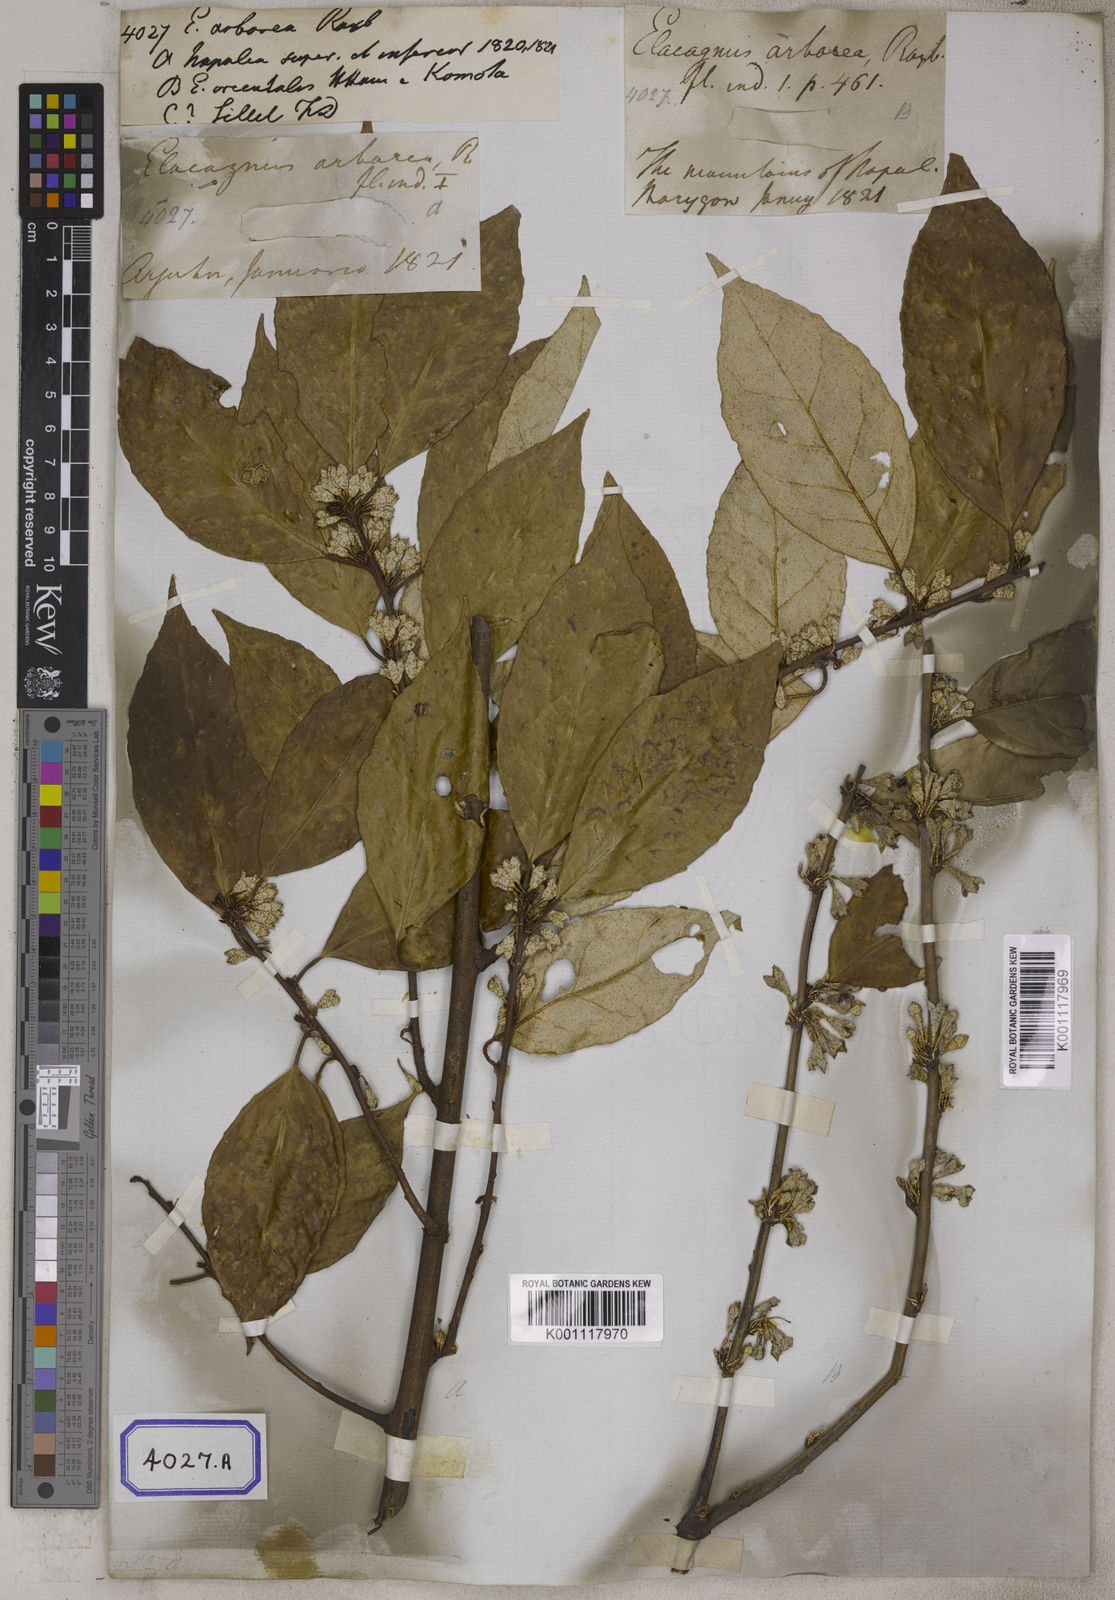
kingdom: Plantae
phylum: Tracheophyta
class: Magnoliopsida
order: Rosales
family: Elaeagnaceae
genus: Elaeagnus
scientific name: Elaeagnus conferta
